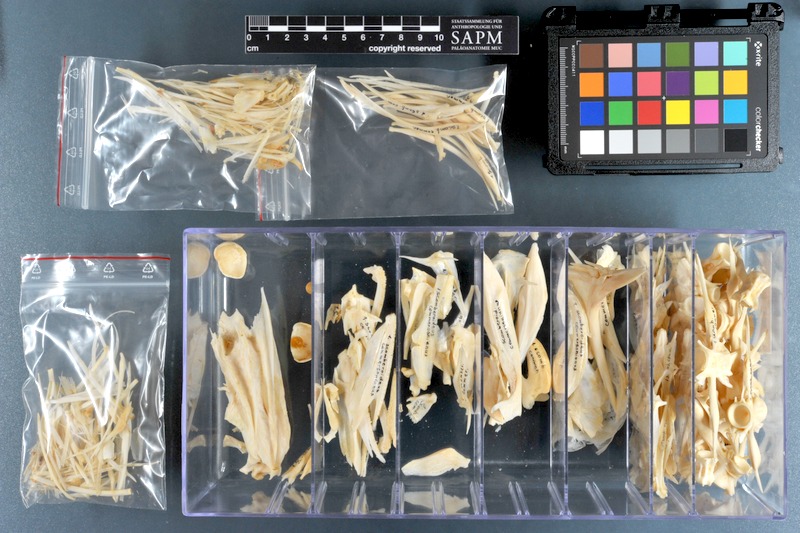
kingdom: Animalia
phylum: Chordata
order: Perciformes
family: Carangidae
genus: Scomberoides
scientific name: Scomberoides commersonnianus
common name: Talang queenfish
